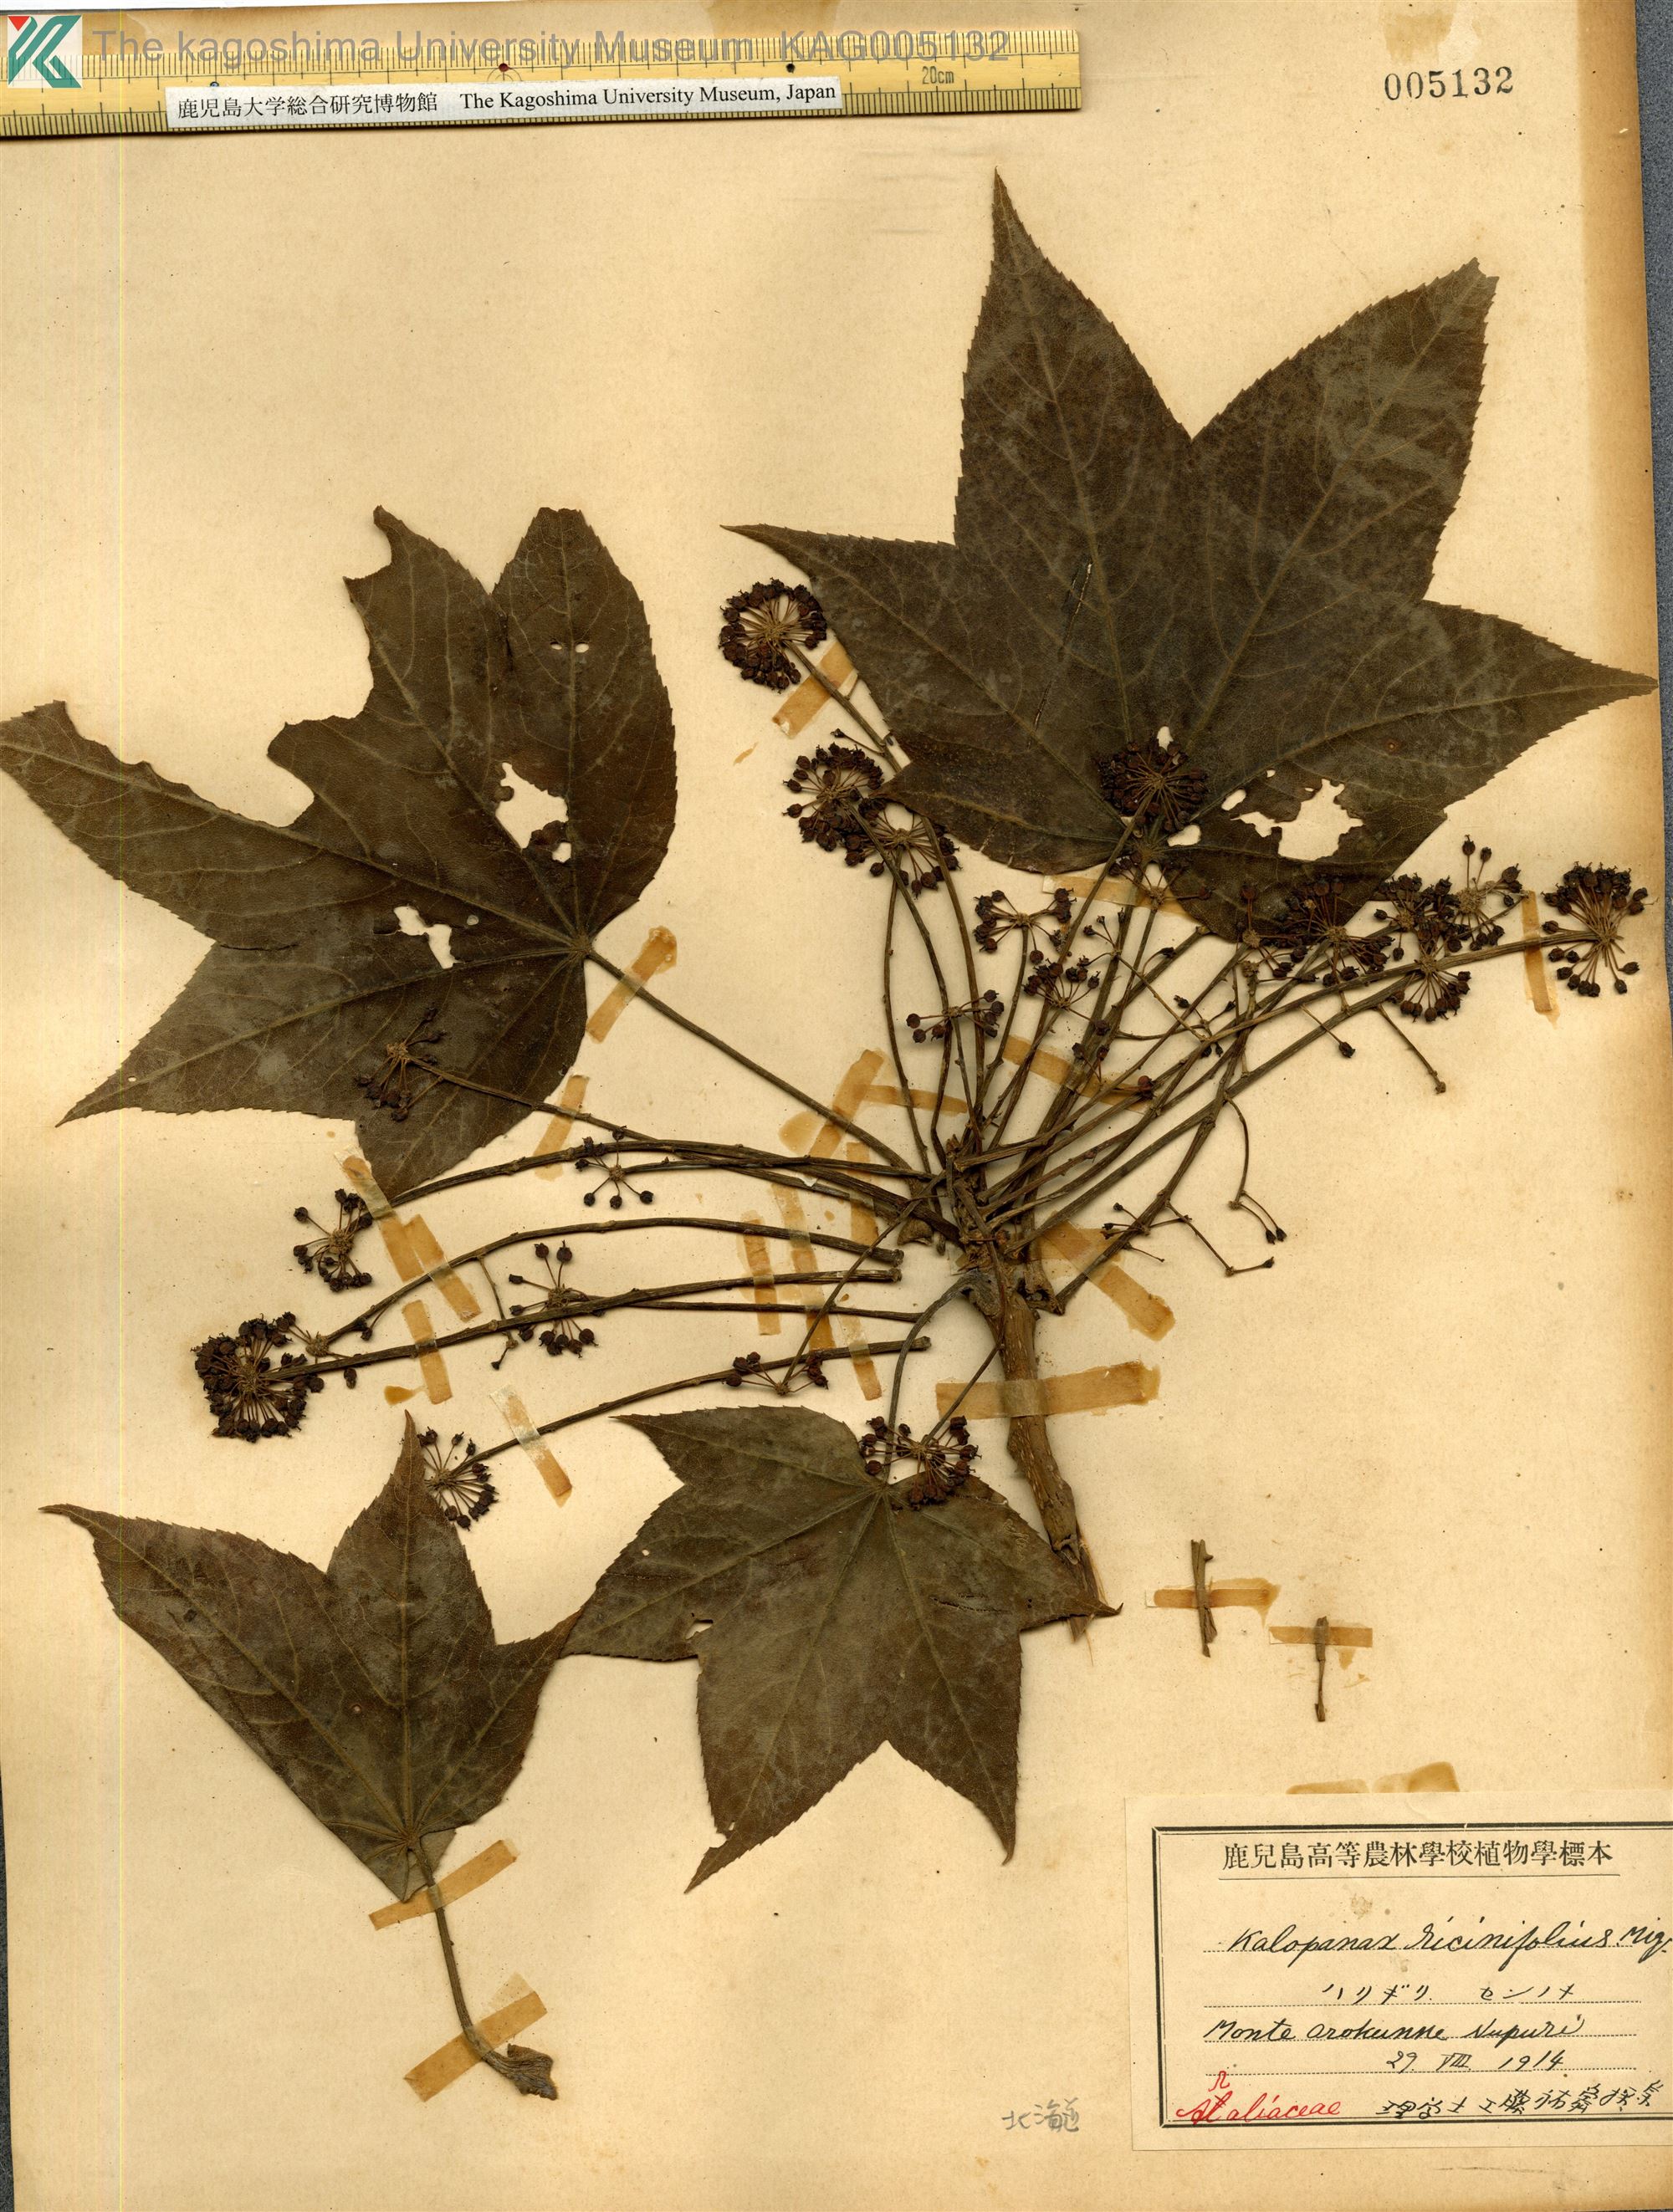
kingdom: Plantae
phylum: Tracheophyta
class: Magnoliopsida
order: Apiales
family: Araliaceae
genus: Kalopanax
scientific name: Kalopanax septemlobus
